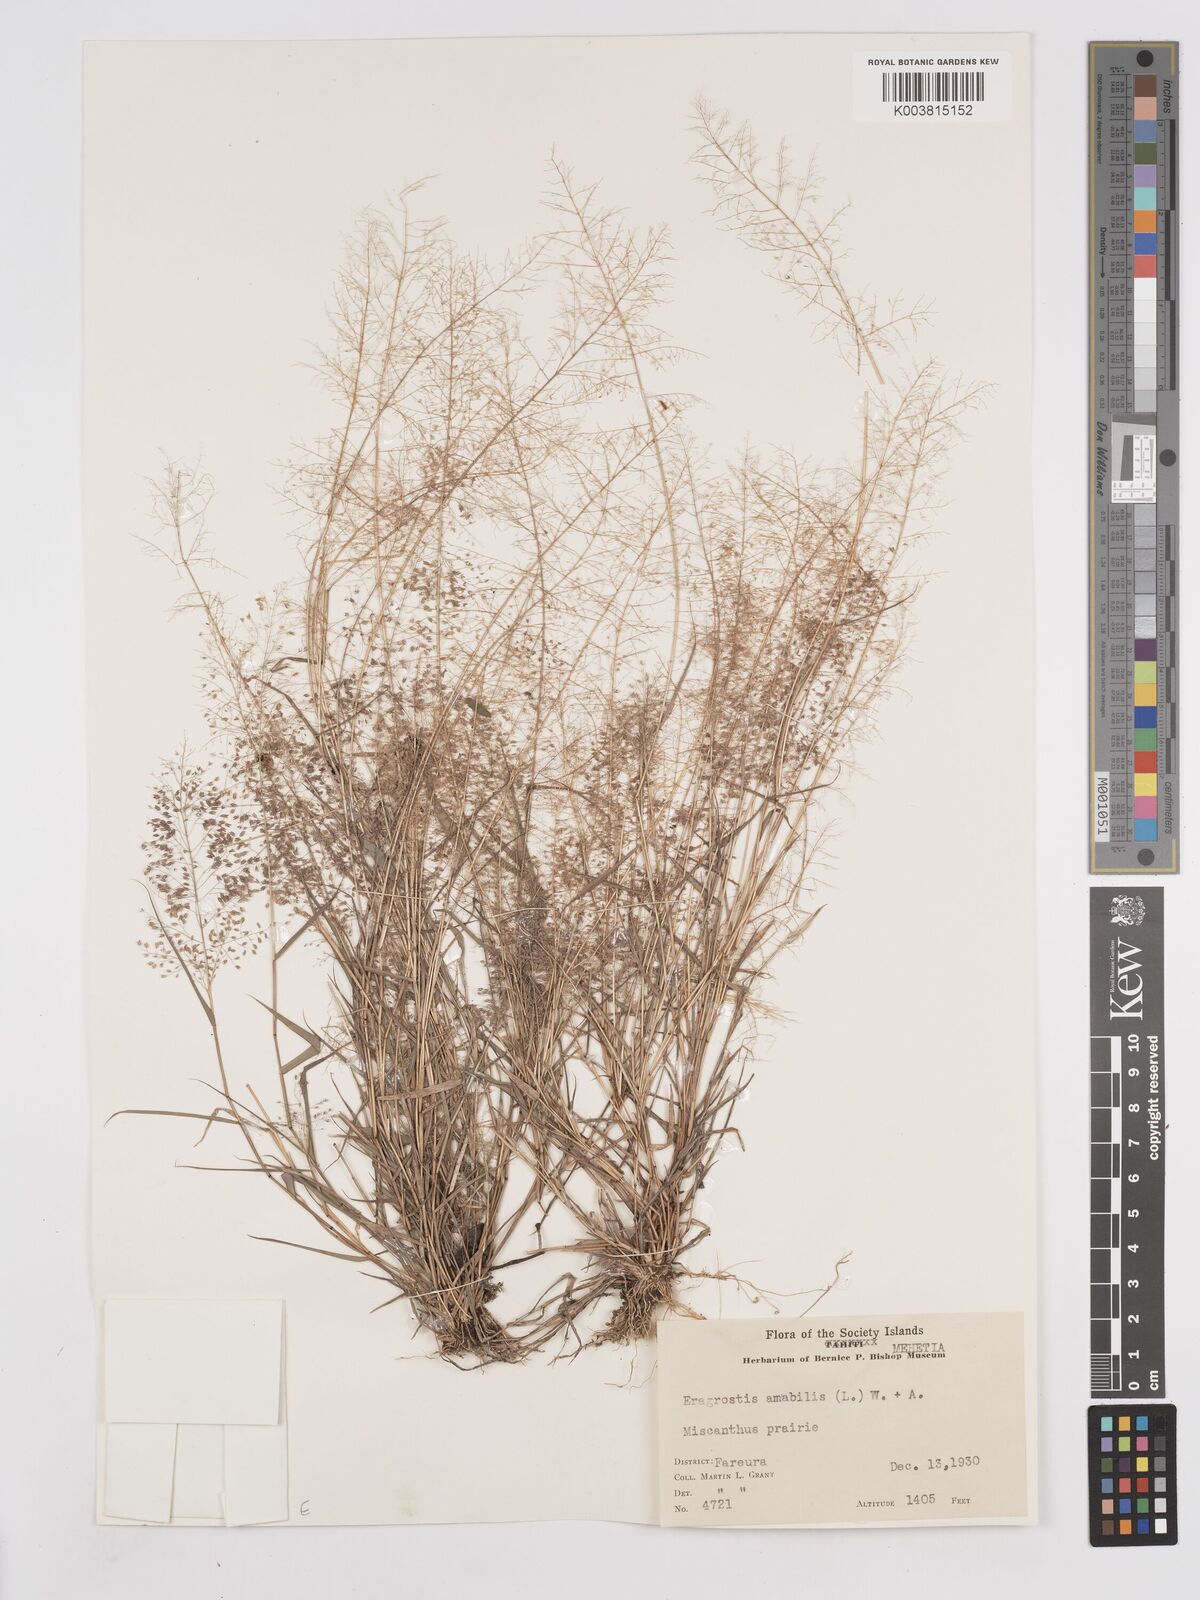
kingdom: Plantae
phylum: Tracheophyta
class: Liliopsida
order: Poales
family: Poaceae
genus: Eragrostis
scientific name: Eragrostis tenella
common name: Japanese lovegrass
